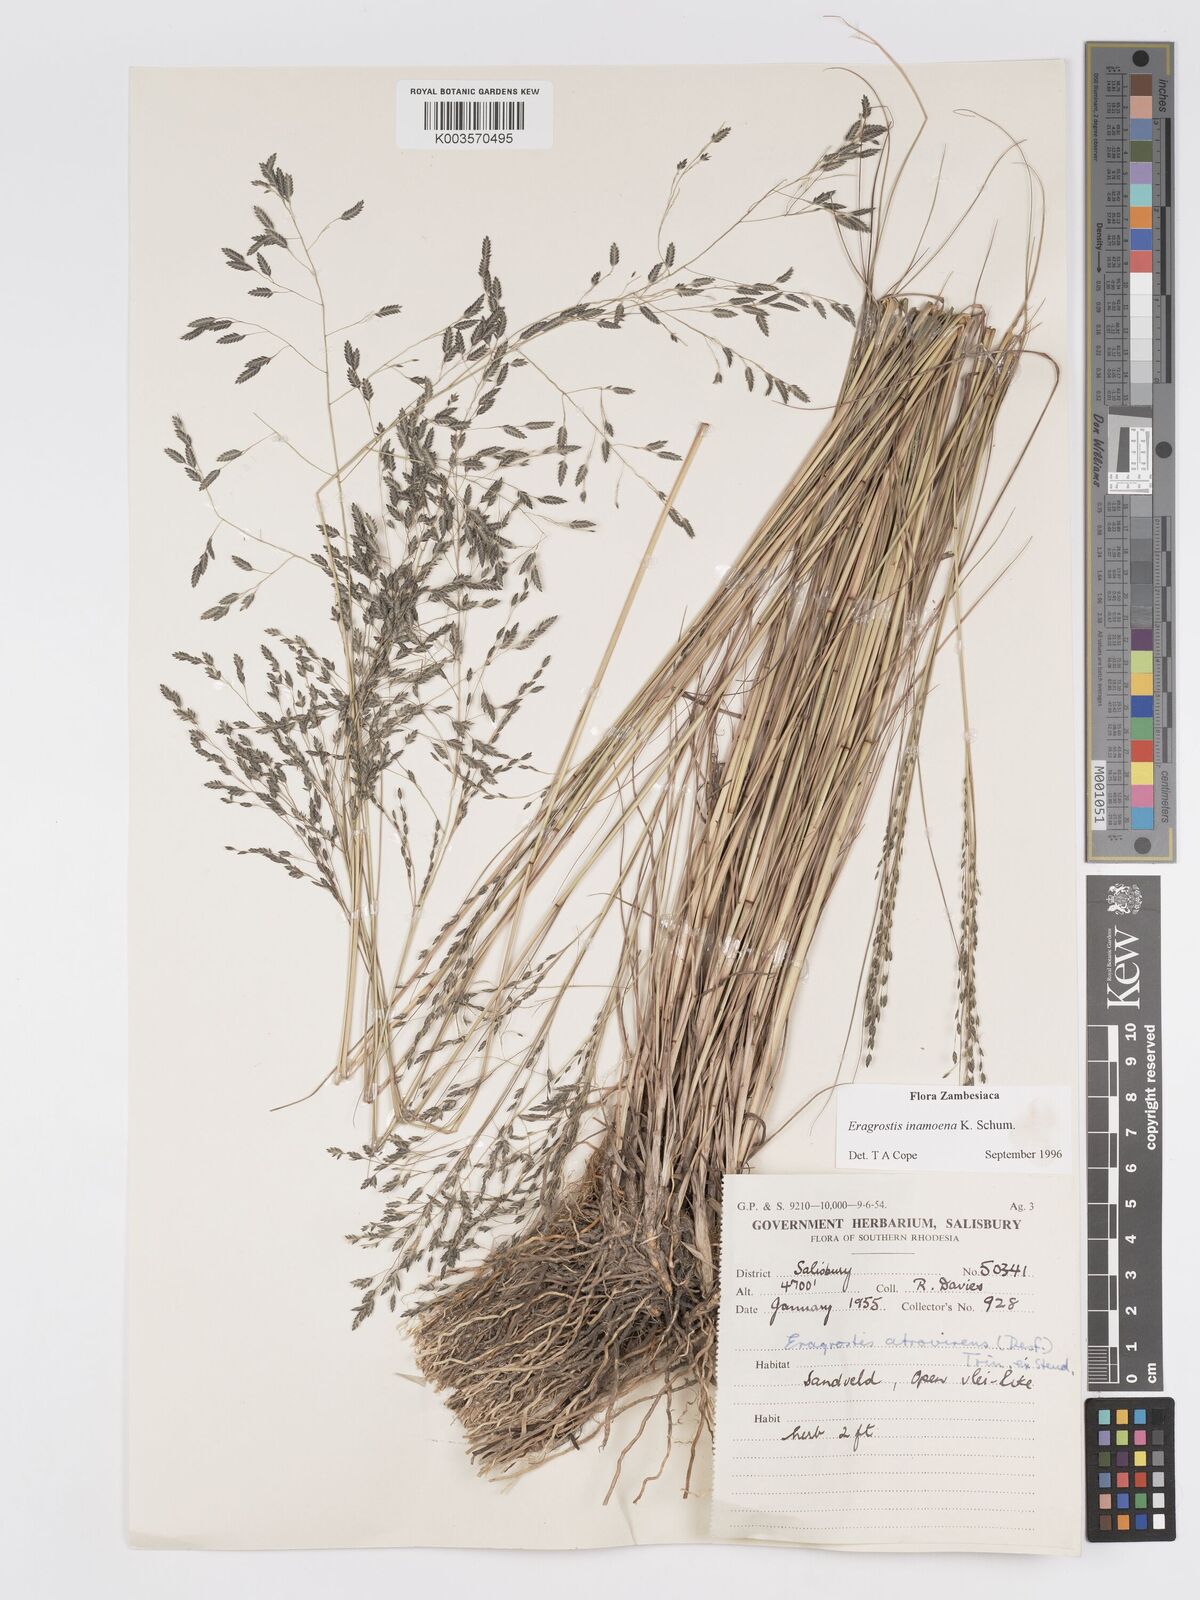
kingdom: Plantae
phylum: Tracheophyta
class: Liliopsida
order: Poales
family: Poaceae
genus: Eragrostis
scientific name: Eragrostis inamoena
